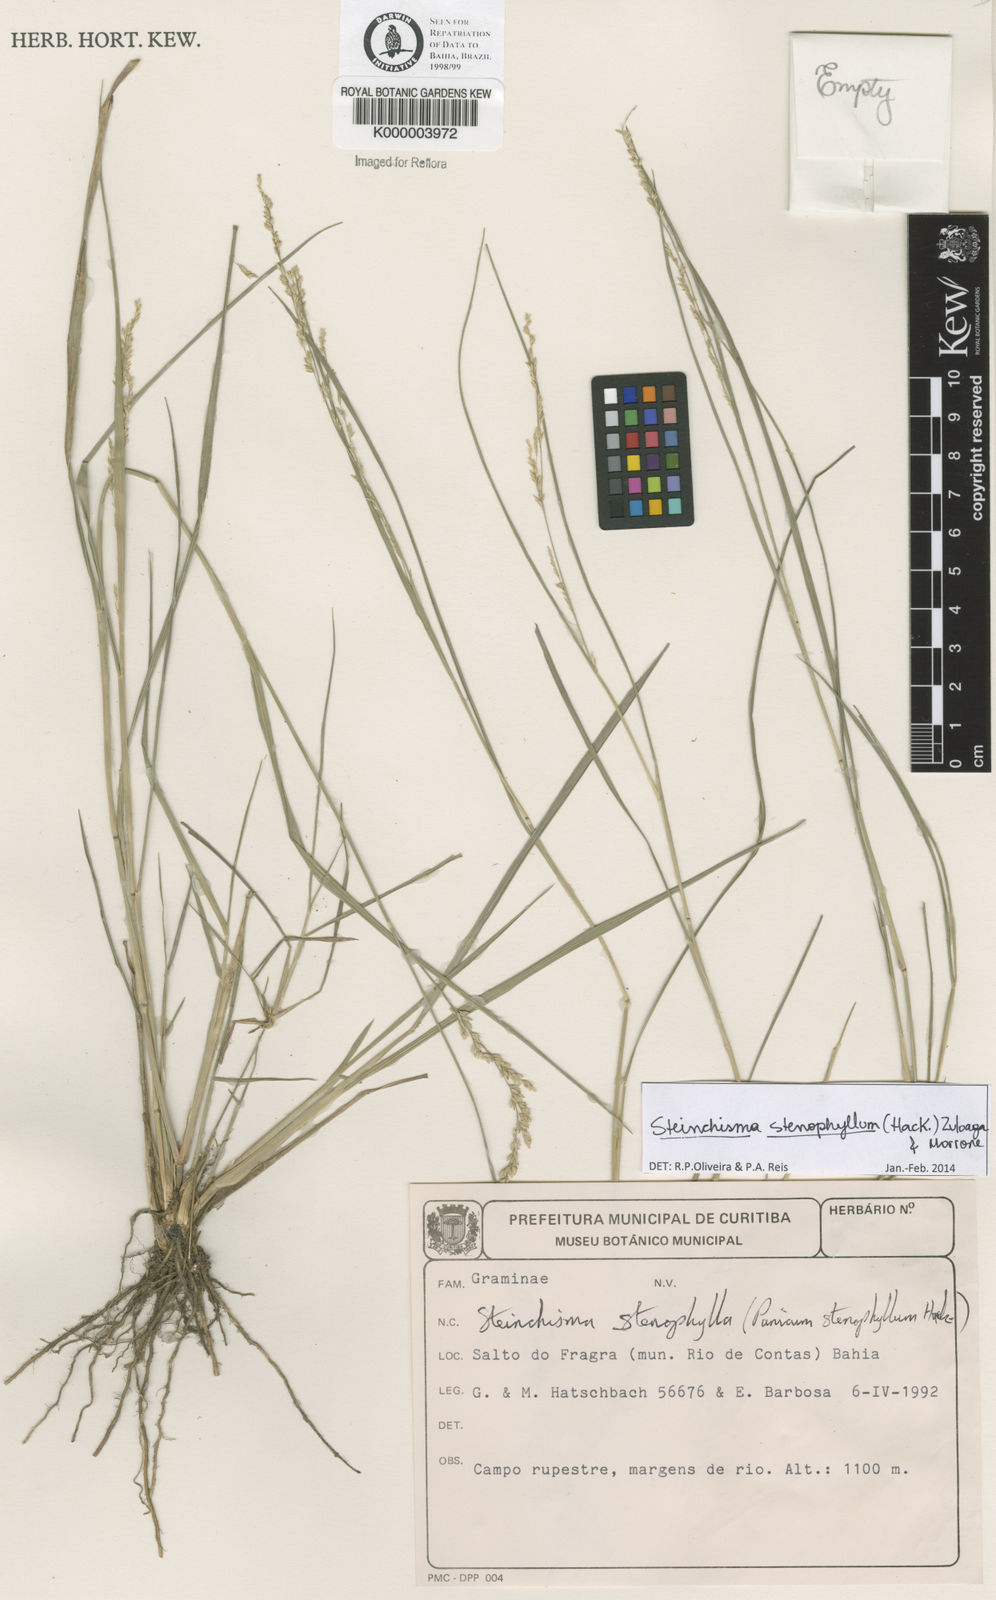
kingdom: Plantae
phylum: Tracheophyta
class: Liliopsida
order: Poales
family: Poaceae
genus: Steinchisma
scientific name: Steinchisma
